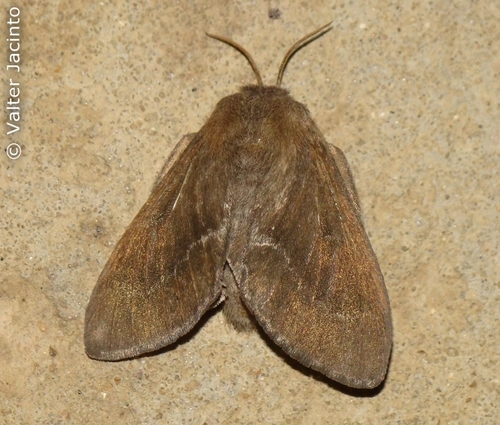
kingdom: Animalia
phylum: Arthropoda
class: Insecta
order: Lepidoptera
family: Lasiocampidae
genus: Psilogaster
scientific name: Psilogaster loti
